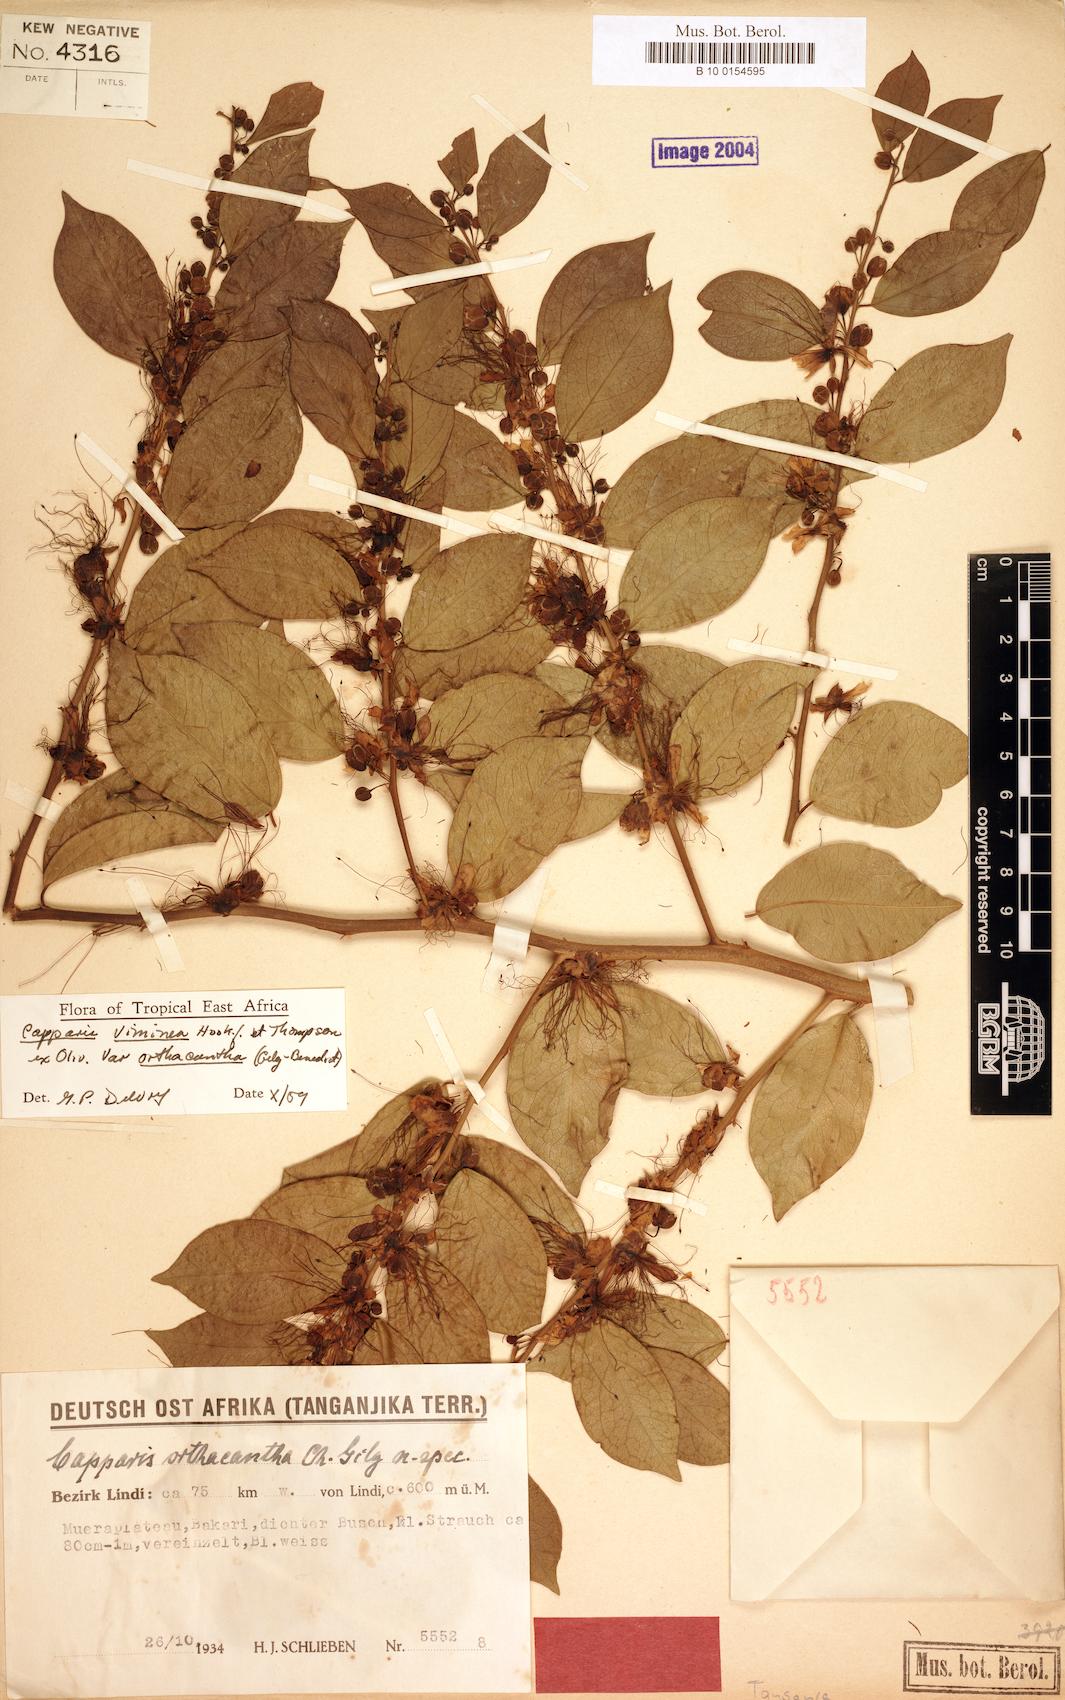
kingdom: Plantae
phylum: Tracheophyta
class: Magnoliopsida
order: Brassicales
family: Capparaceae
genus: Capparis
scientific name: Capparis viminea
